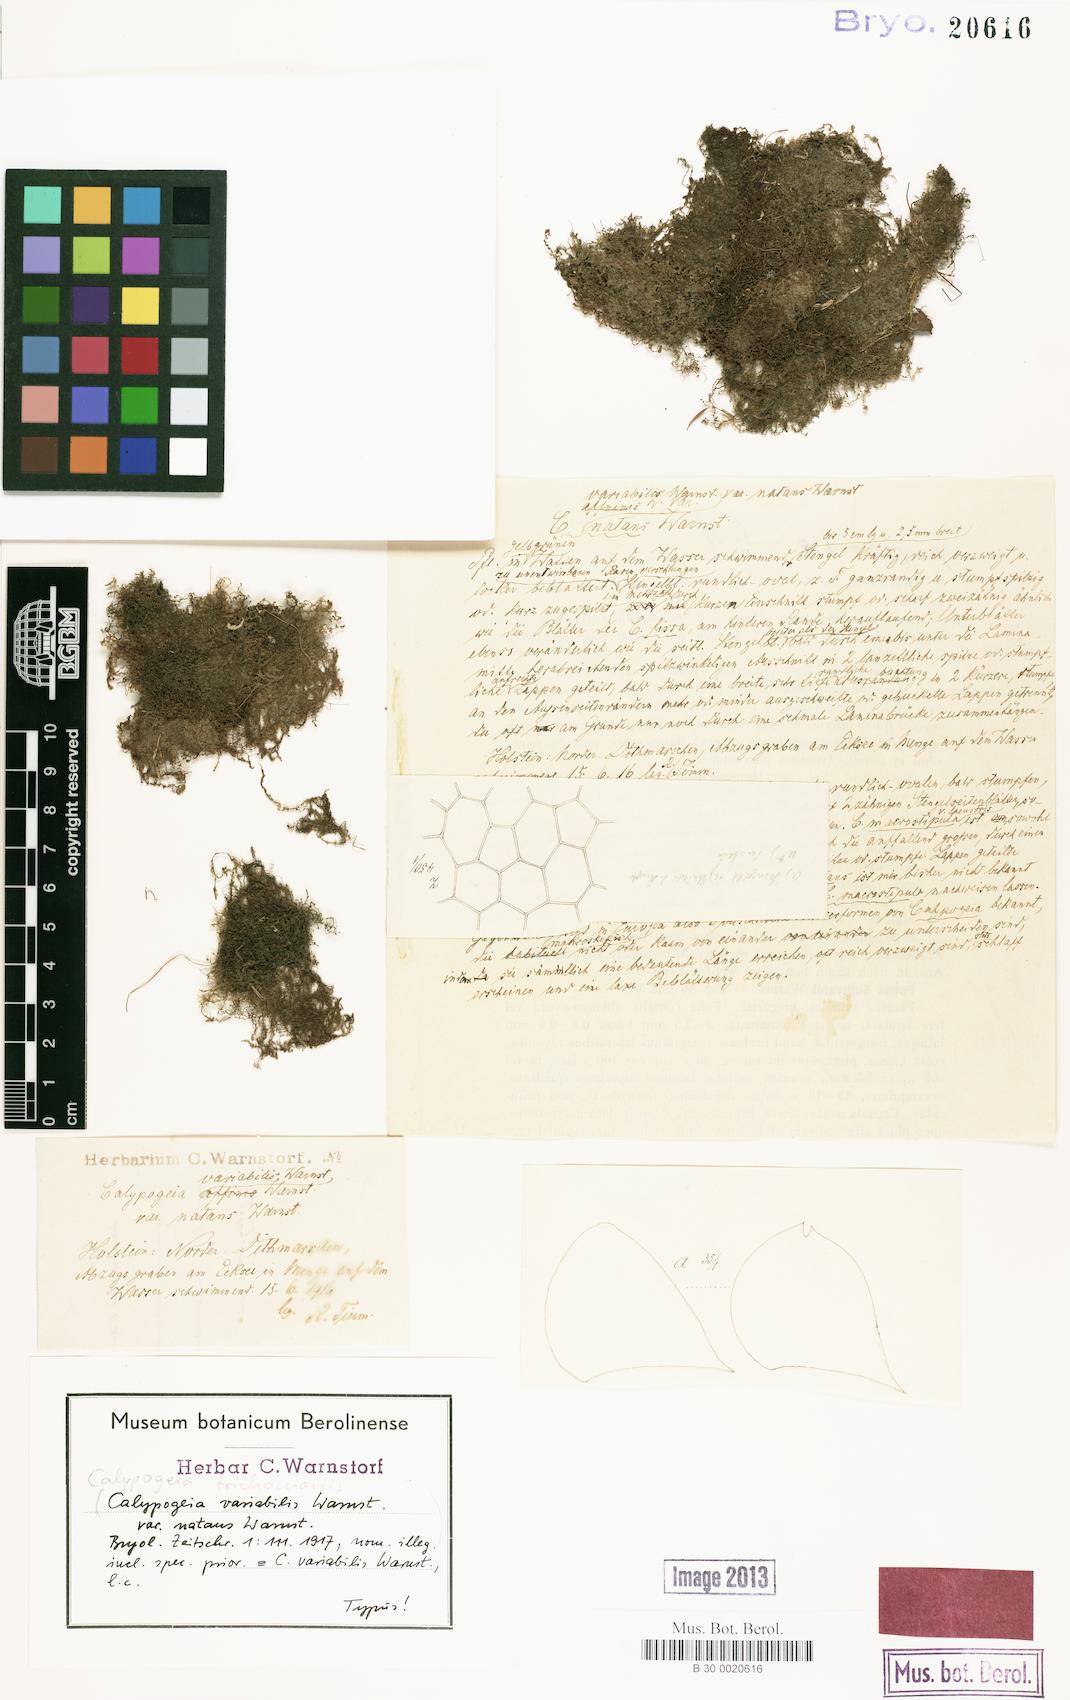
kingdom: Plantae
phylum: Marchantiophyta
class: Jungermanniopsida
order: Jungermanniales
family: Calypogeiaceae
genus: Calypogeia
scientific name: Calypogeia fissa
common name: Common pouchwort
